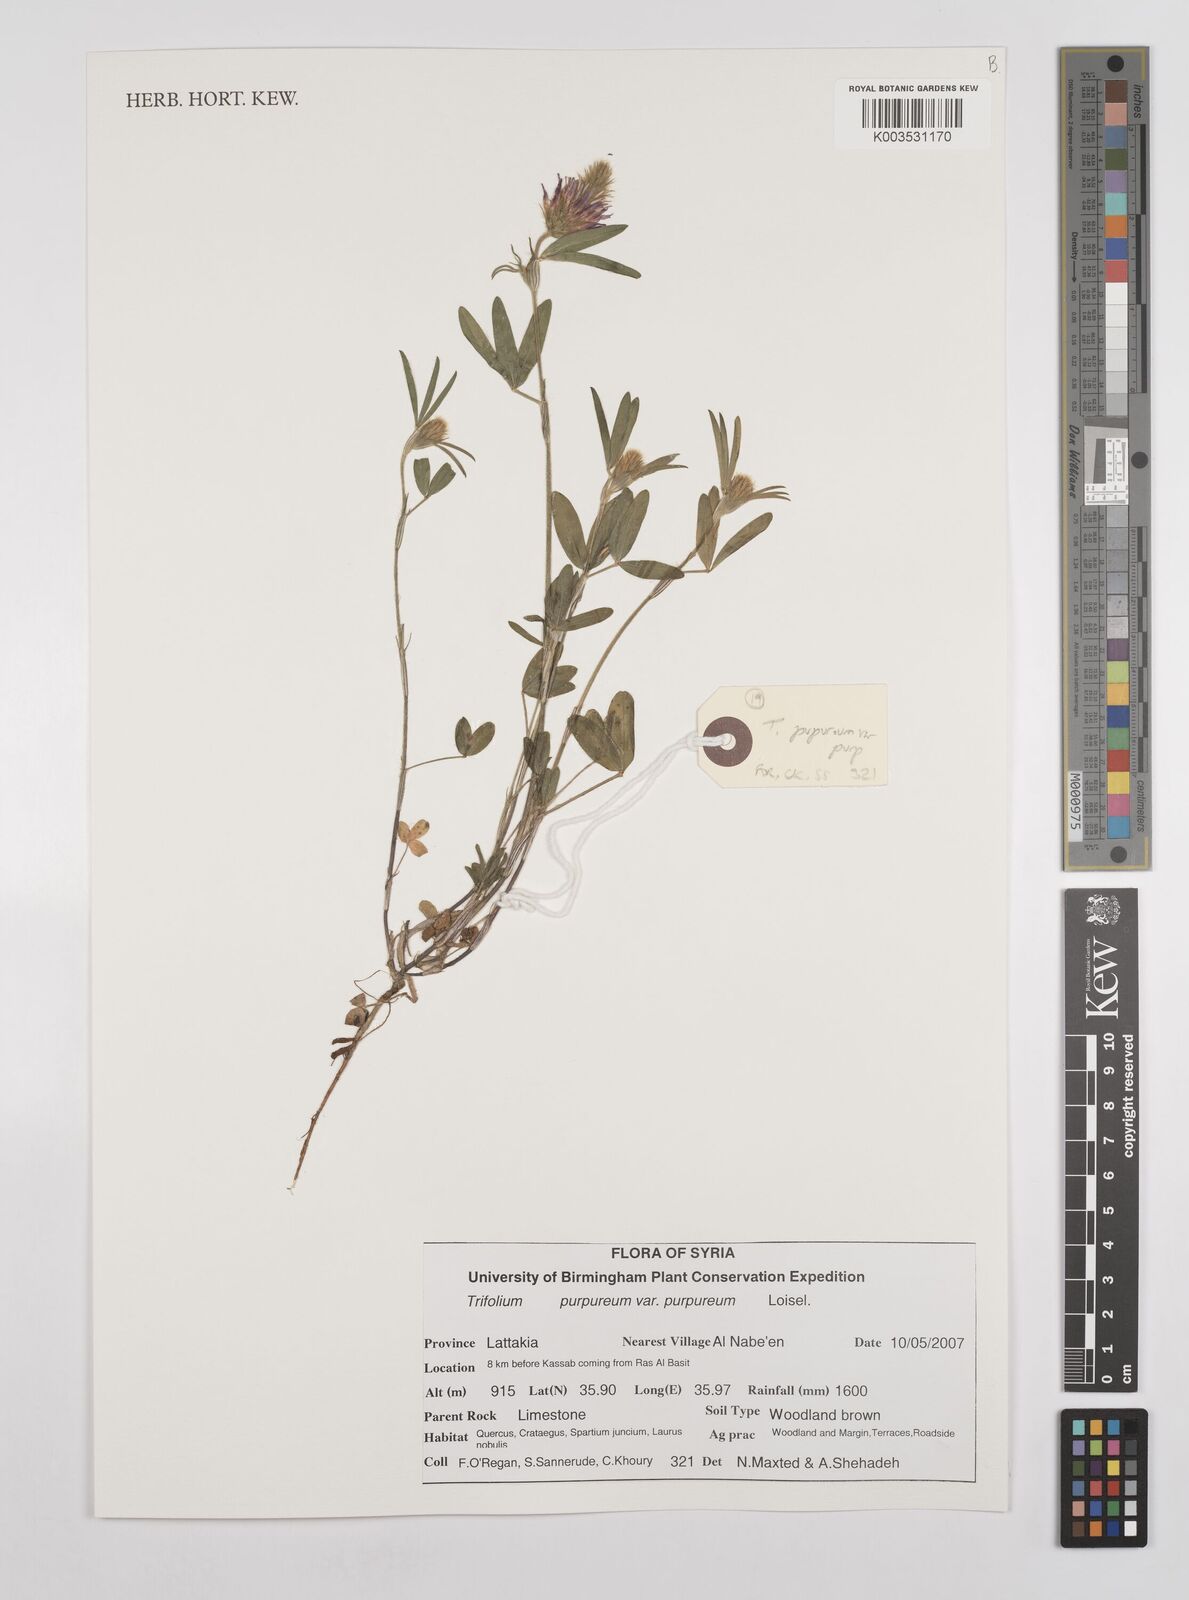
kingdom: Plantae
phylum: Tracheophyta
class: Magnoliopsida
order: Fabales
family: Fabaceae
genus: Trifolium
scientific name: Trifolium purpureum
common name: Purple clover
